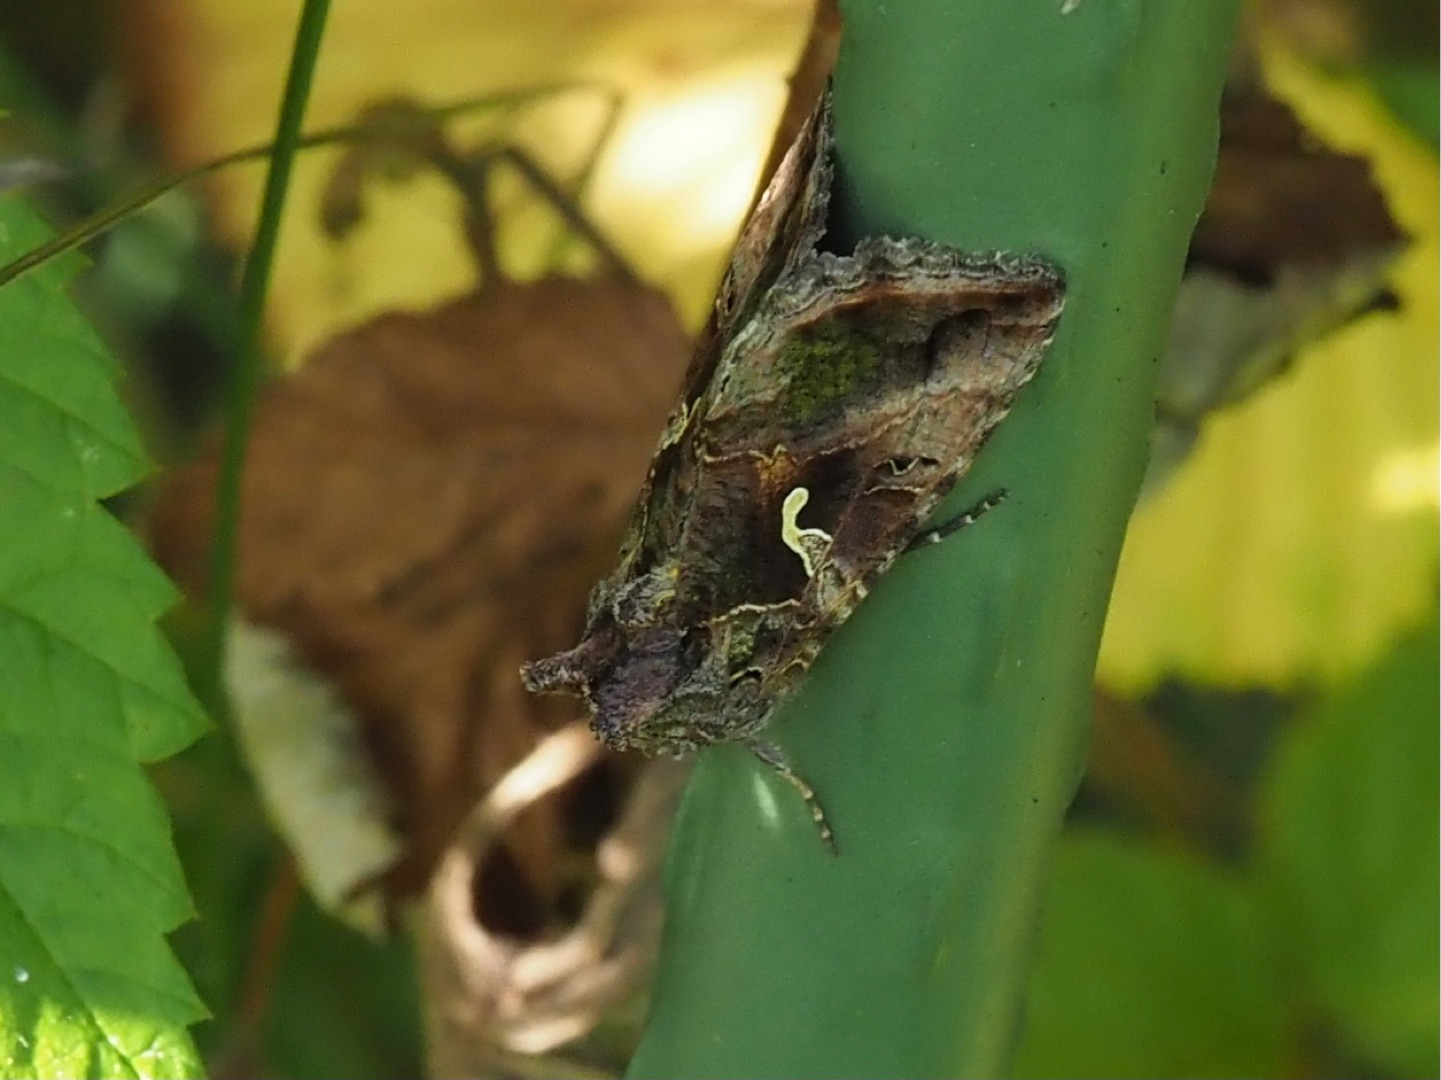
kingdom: Animalia
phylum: Arthropoda
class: Insecta
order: Lepidoptera
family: Noctuidae
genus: Autographa
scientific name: Autographa gamma
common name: Gammaugle
